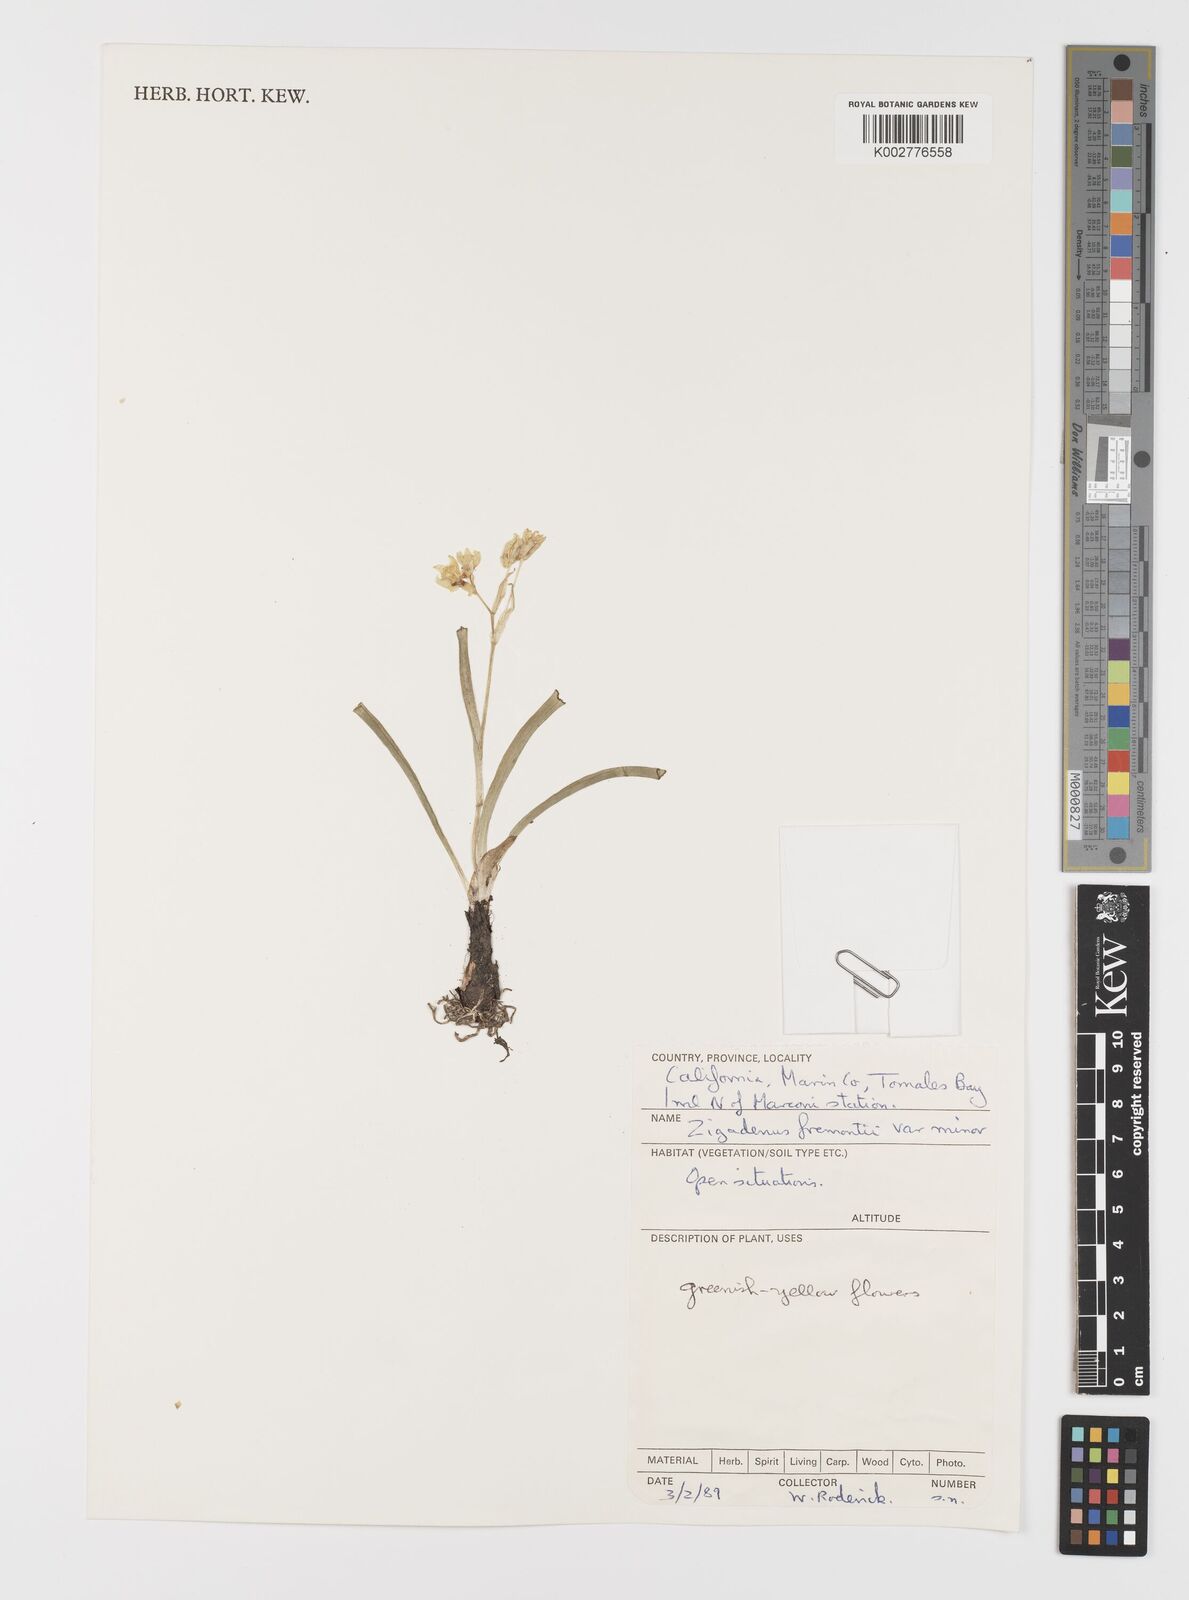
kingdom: Plantae
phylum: Tracheophyta
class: Liliopsida
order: Liliales
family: Melanthiaceae
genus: Toxicoscordion
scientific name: Toxicoscordion fremontii
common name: Fremont's death camas
